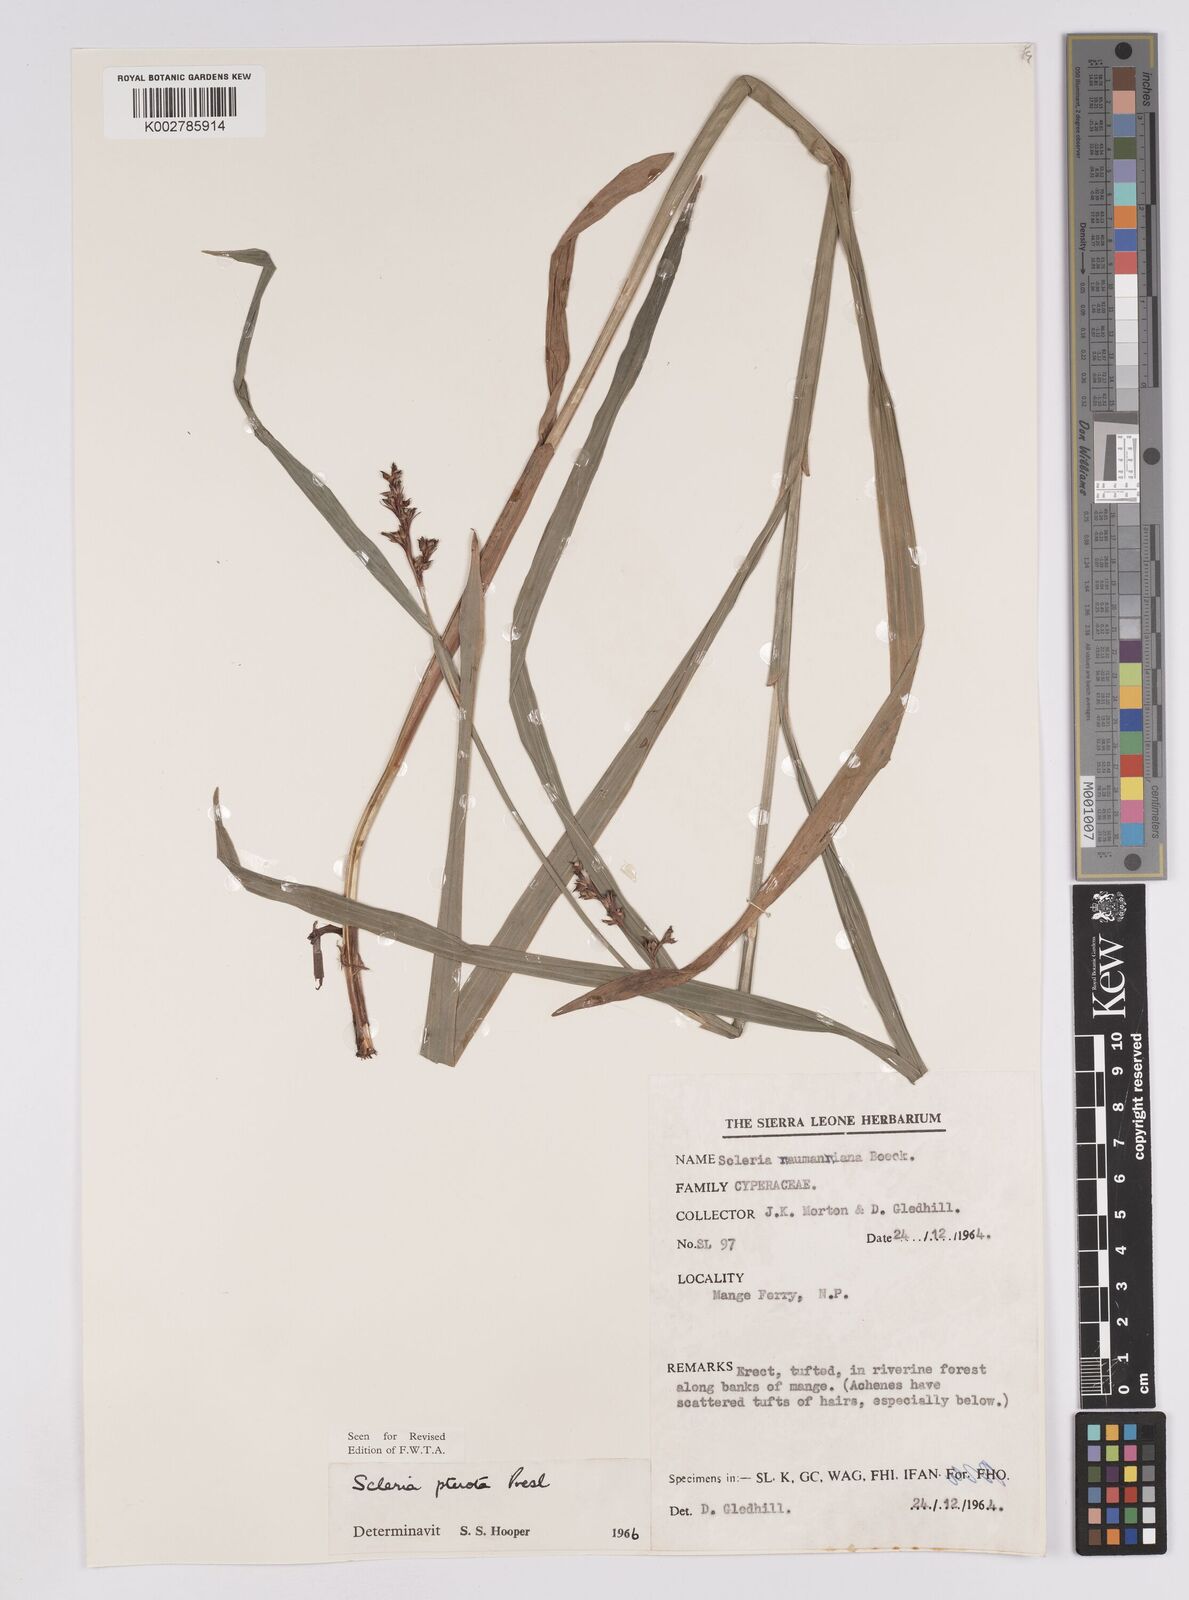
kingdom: Plantae
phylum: Tracheophyta
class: Liliopsida
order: Poales
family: Cyperaceae
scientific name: Cyperaceae
